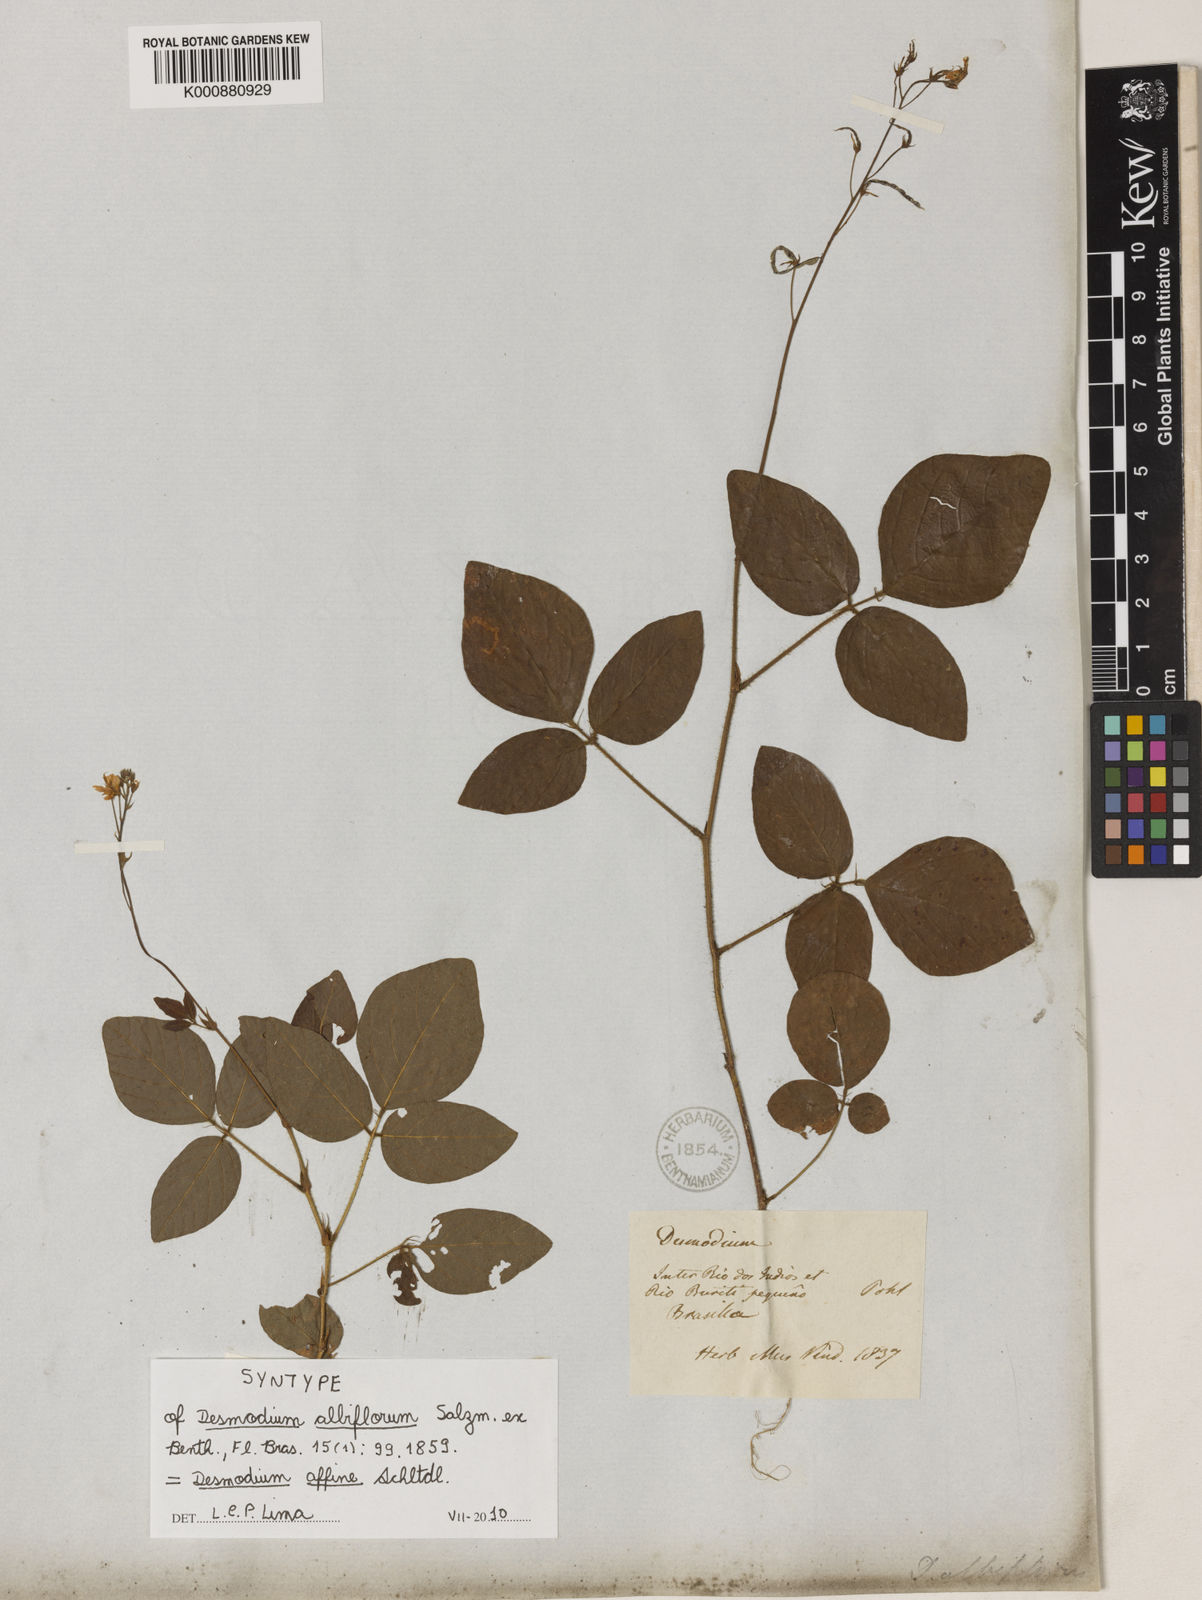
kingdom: Plantae
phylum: Tracheophyta
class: Magnoliopsida
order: Fabales
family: Fabaceae
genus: Desmodium
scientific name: Desmodium affine
